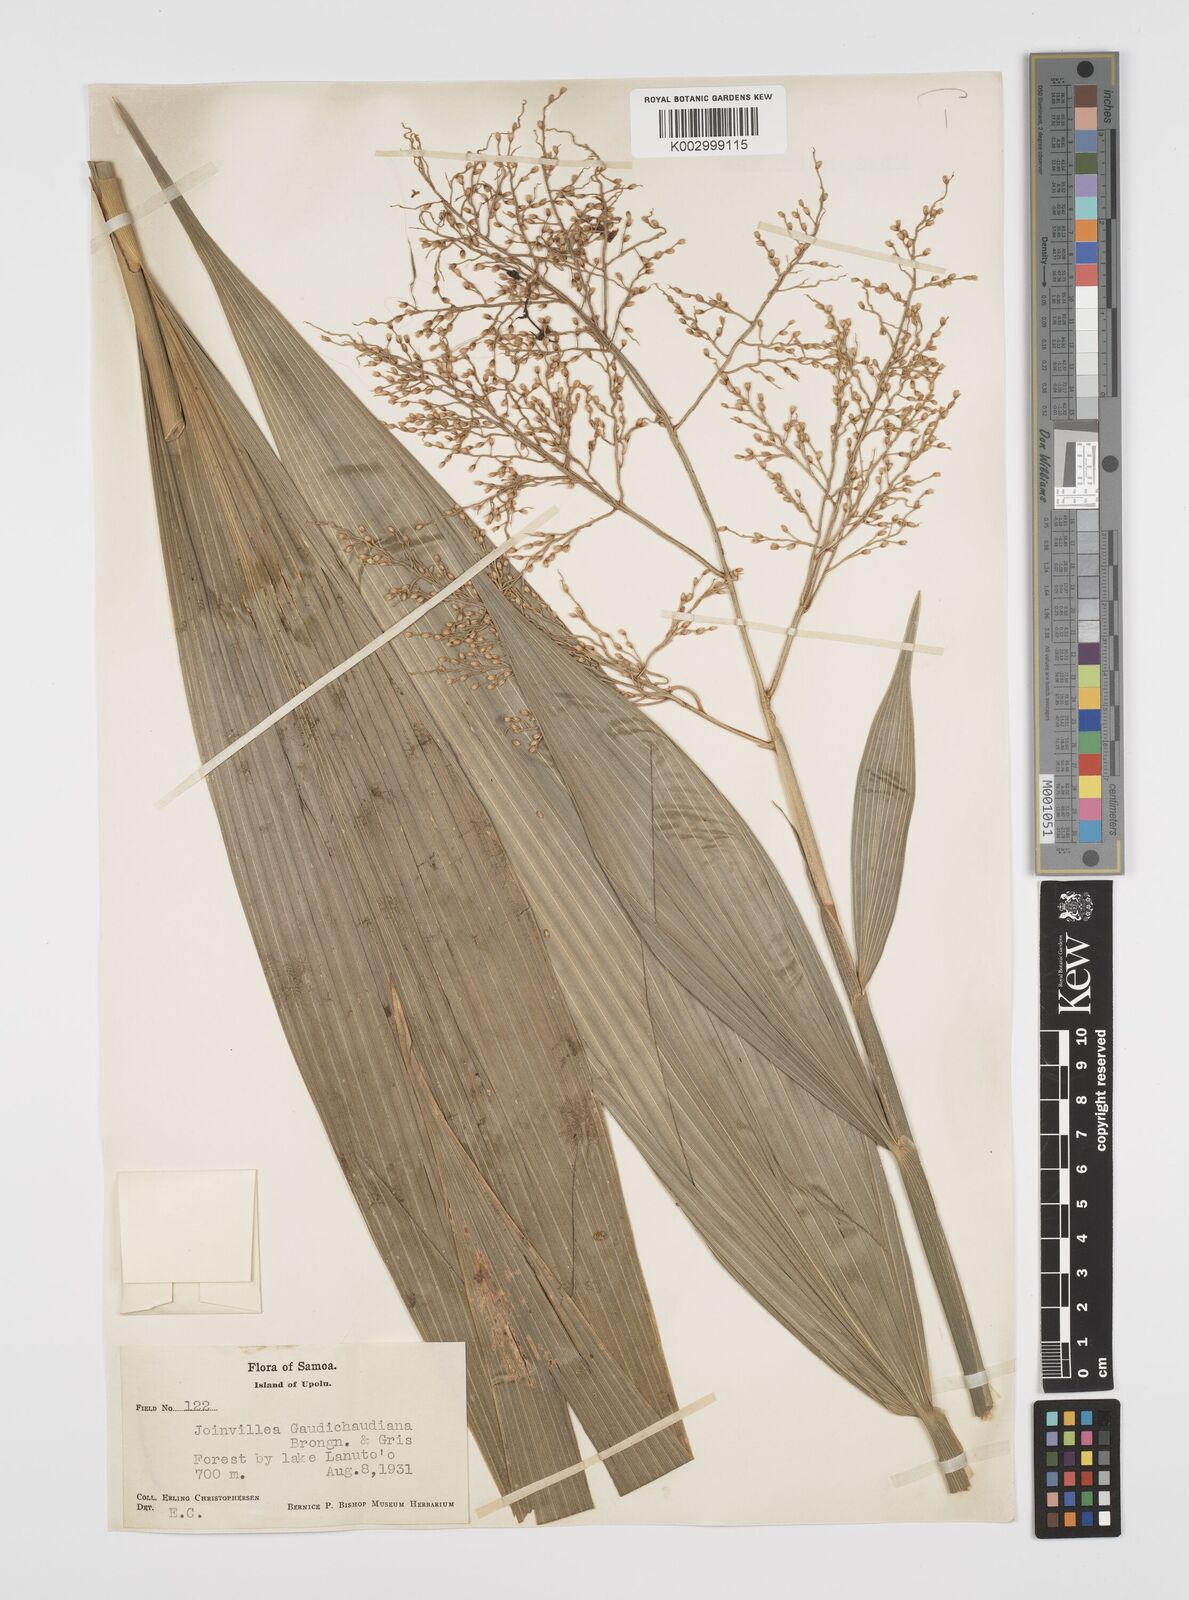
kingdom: Plantae
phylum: Tracheophyta
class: Liliopsida
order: Poales
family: Joinvilleaceae
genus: Joinvillea
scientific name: Joinvillea bryanii
